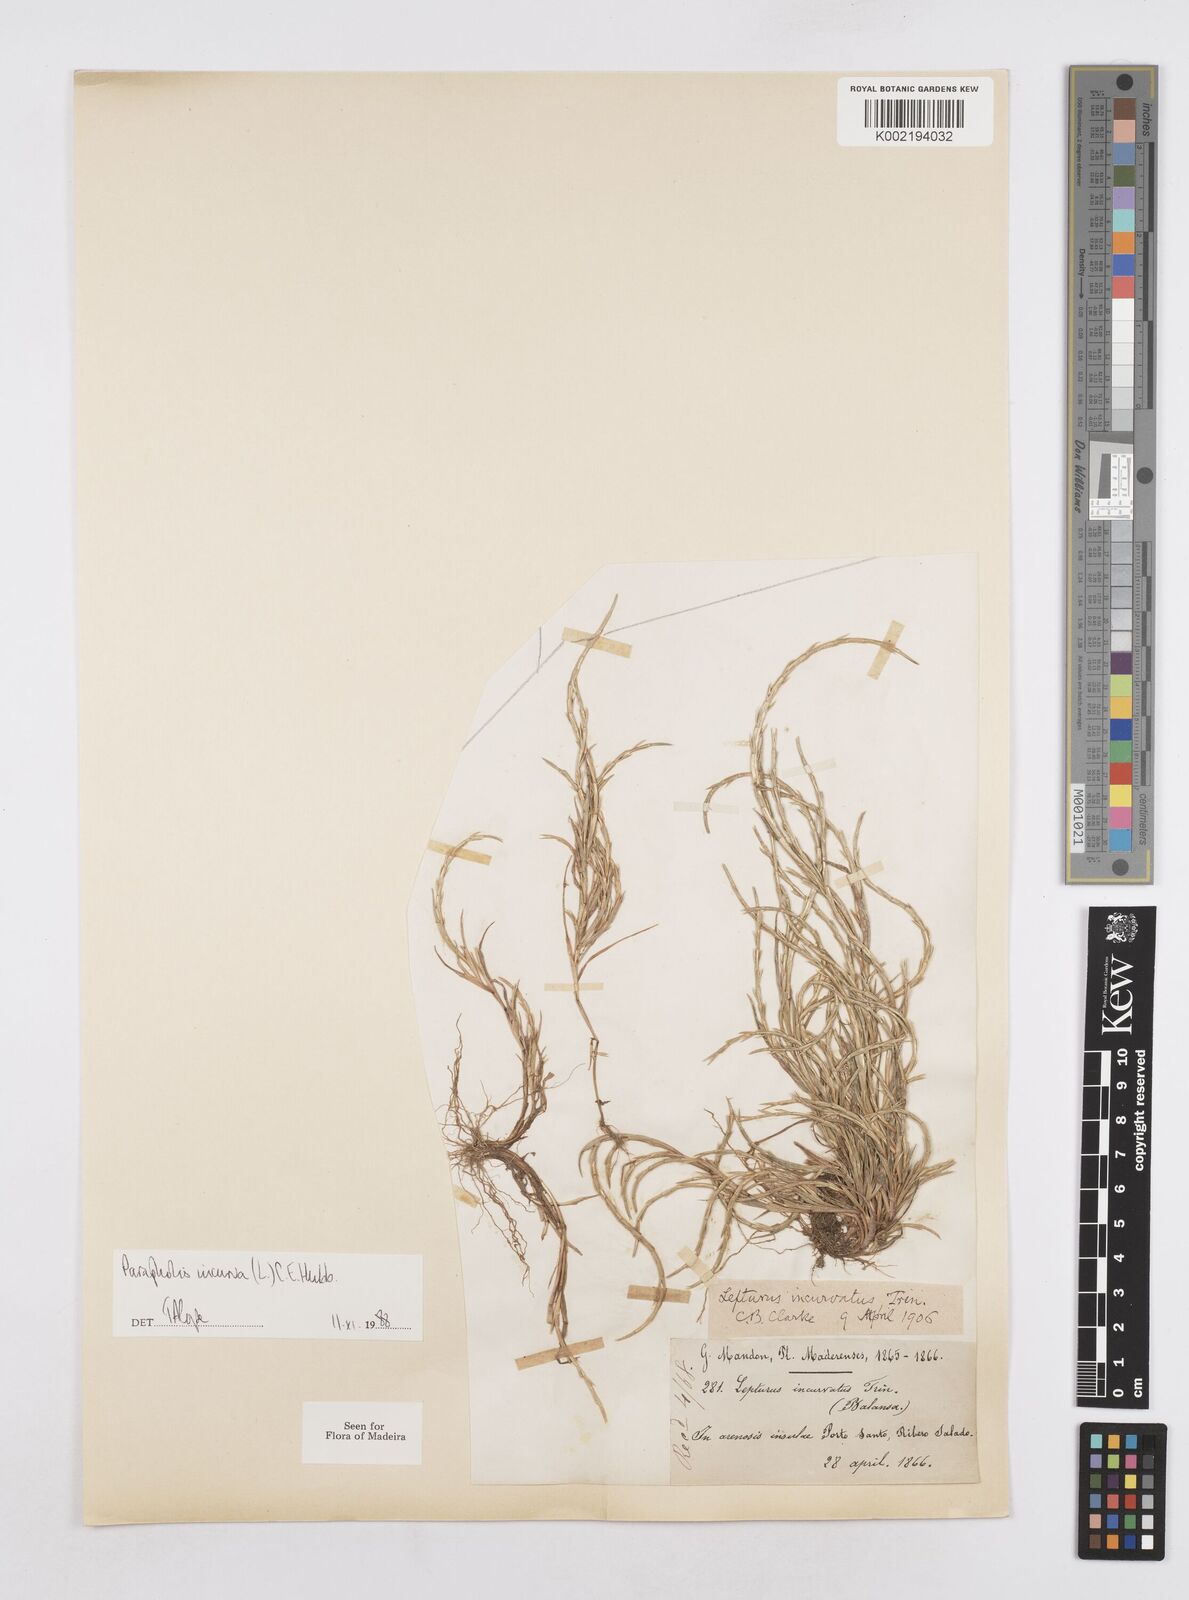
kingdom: Plantae
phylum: Tracheophyta
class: Liliopsida
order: Poales
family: Poaceae
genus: Parapholis
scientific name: Parapholis incurva
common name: Curved sicklegrass
